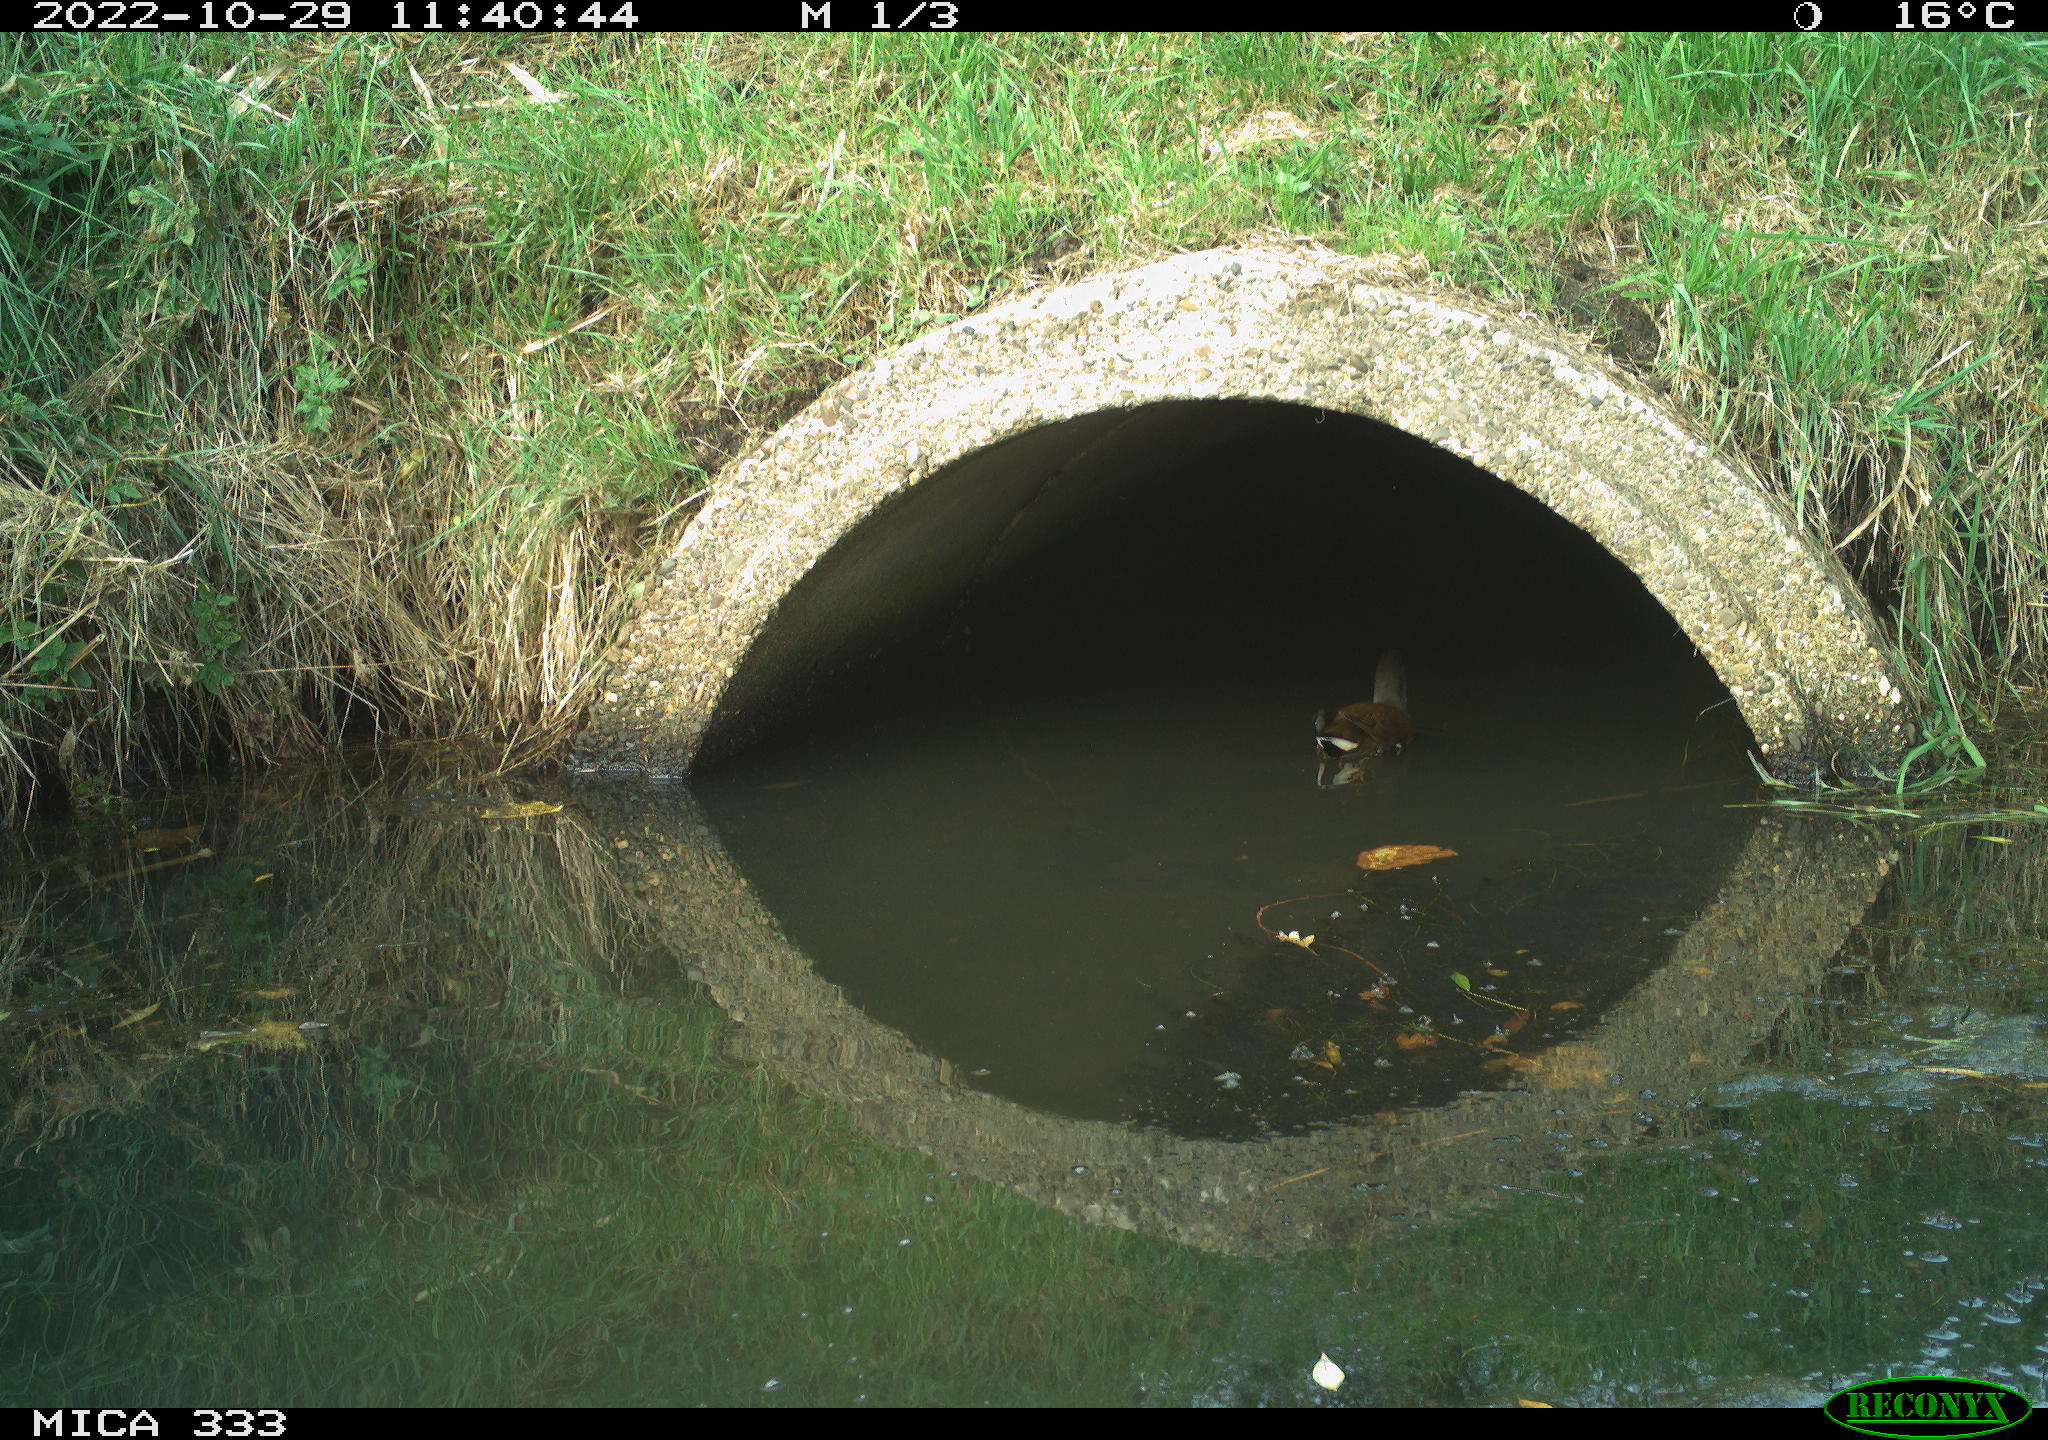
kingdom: Animalia
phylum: Chordata
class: Aves
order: Gruiformes
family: Rallidae
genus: Gallinula
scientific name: Gallinula chloropus
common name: Common moorhen
